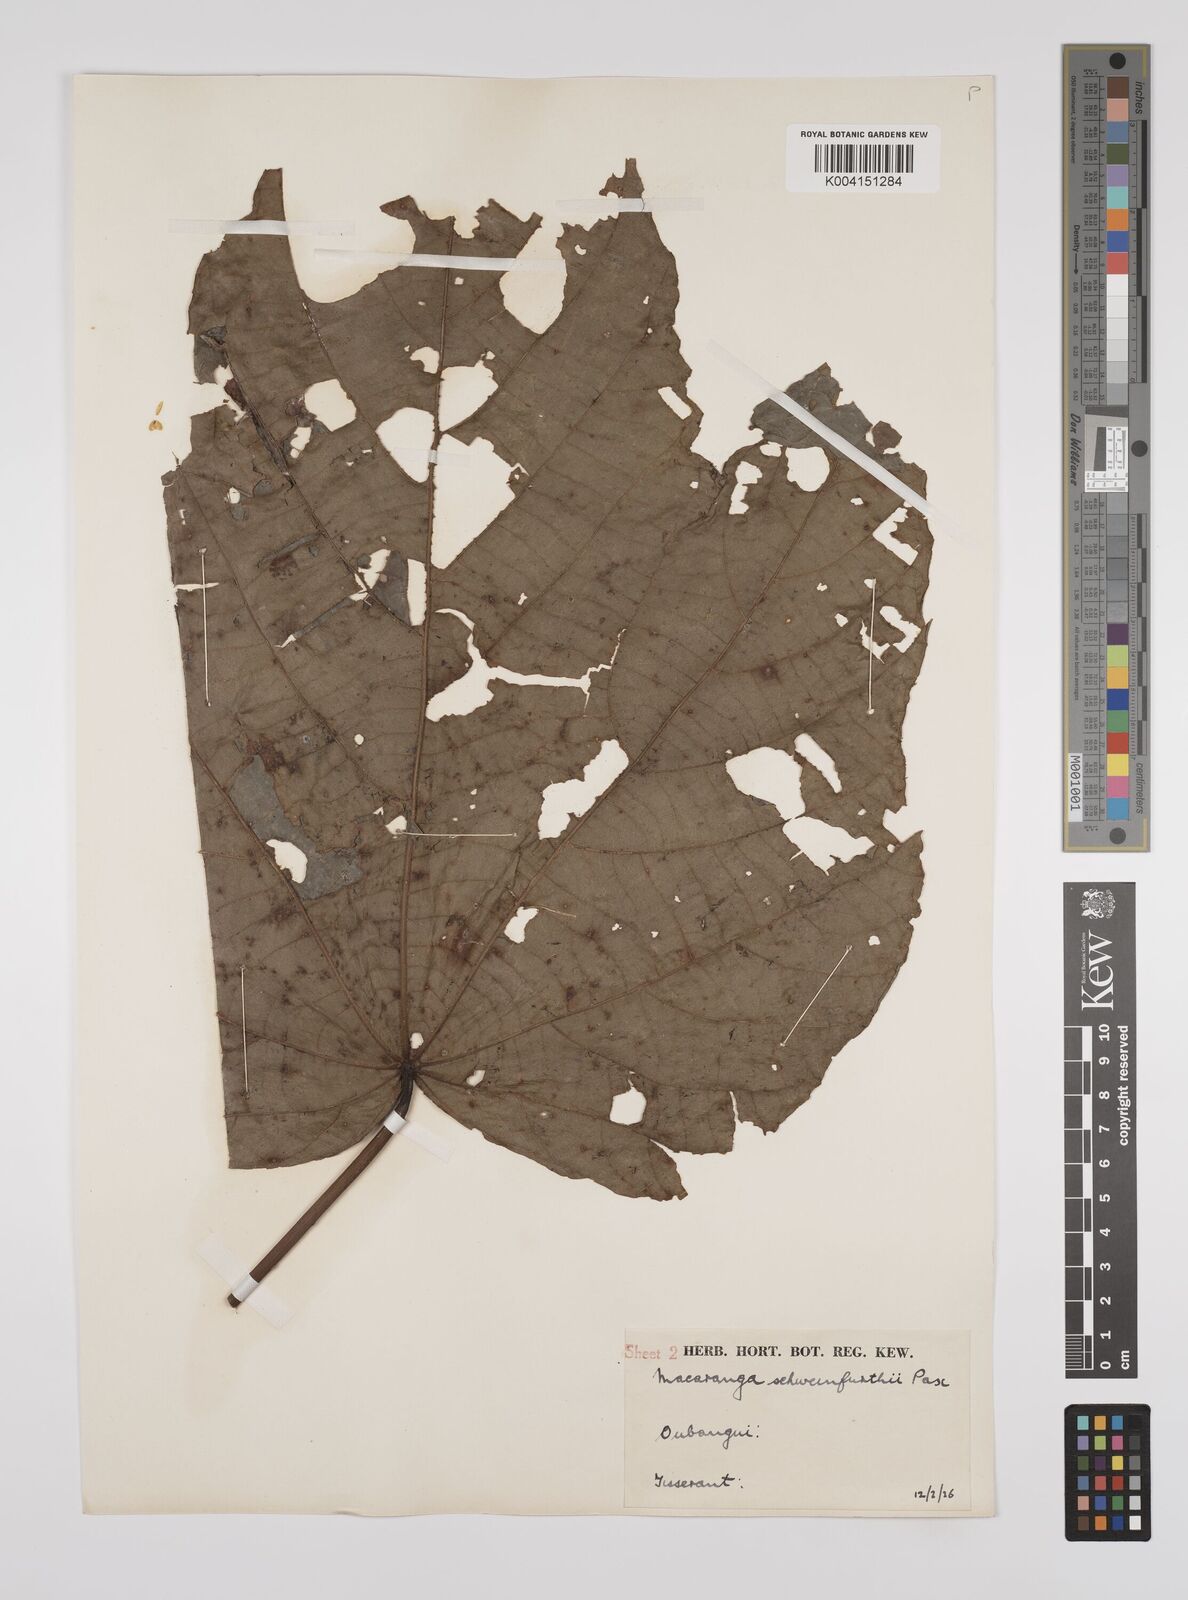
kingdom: Plantae
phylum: Tracheophyta
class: Magnoliopsida
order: Malpighiales
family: Euphorbiaceae
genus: Macaranga
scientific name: Macaranga schweinfurthii
